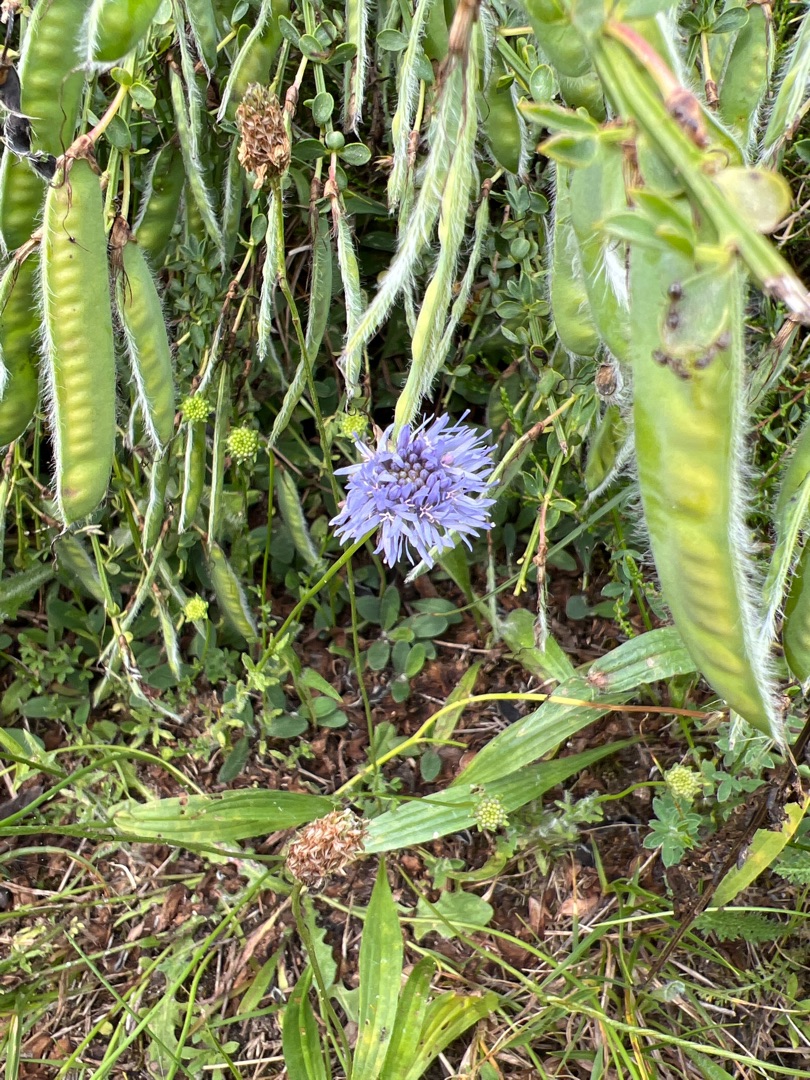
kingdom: Plantae
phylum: Tracheophyta
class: Magnoliopsida
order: Asterales
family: Campanulaceae
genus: Jasione
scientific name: Jasione montana
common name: Blåmunke
